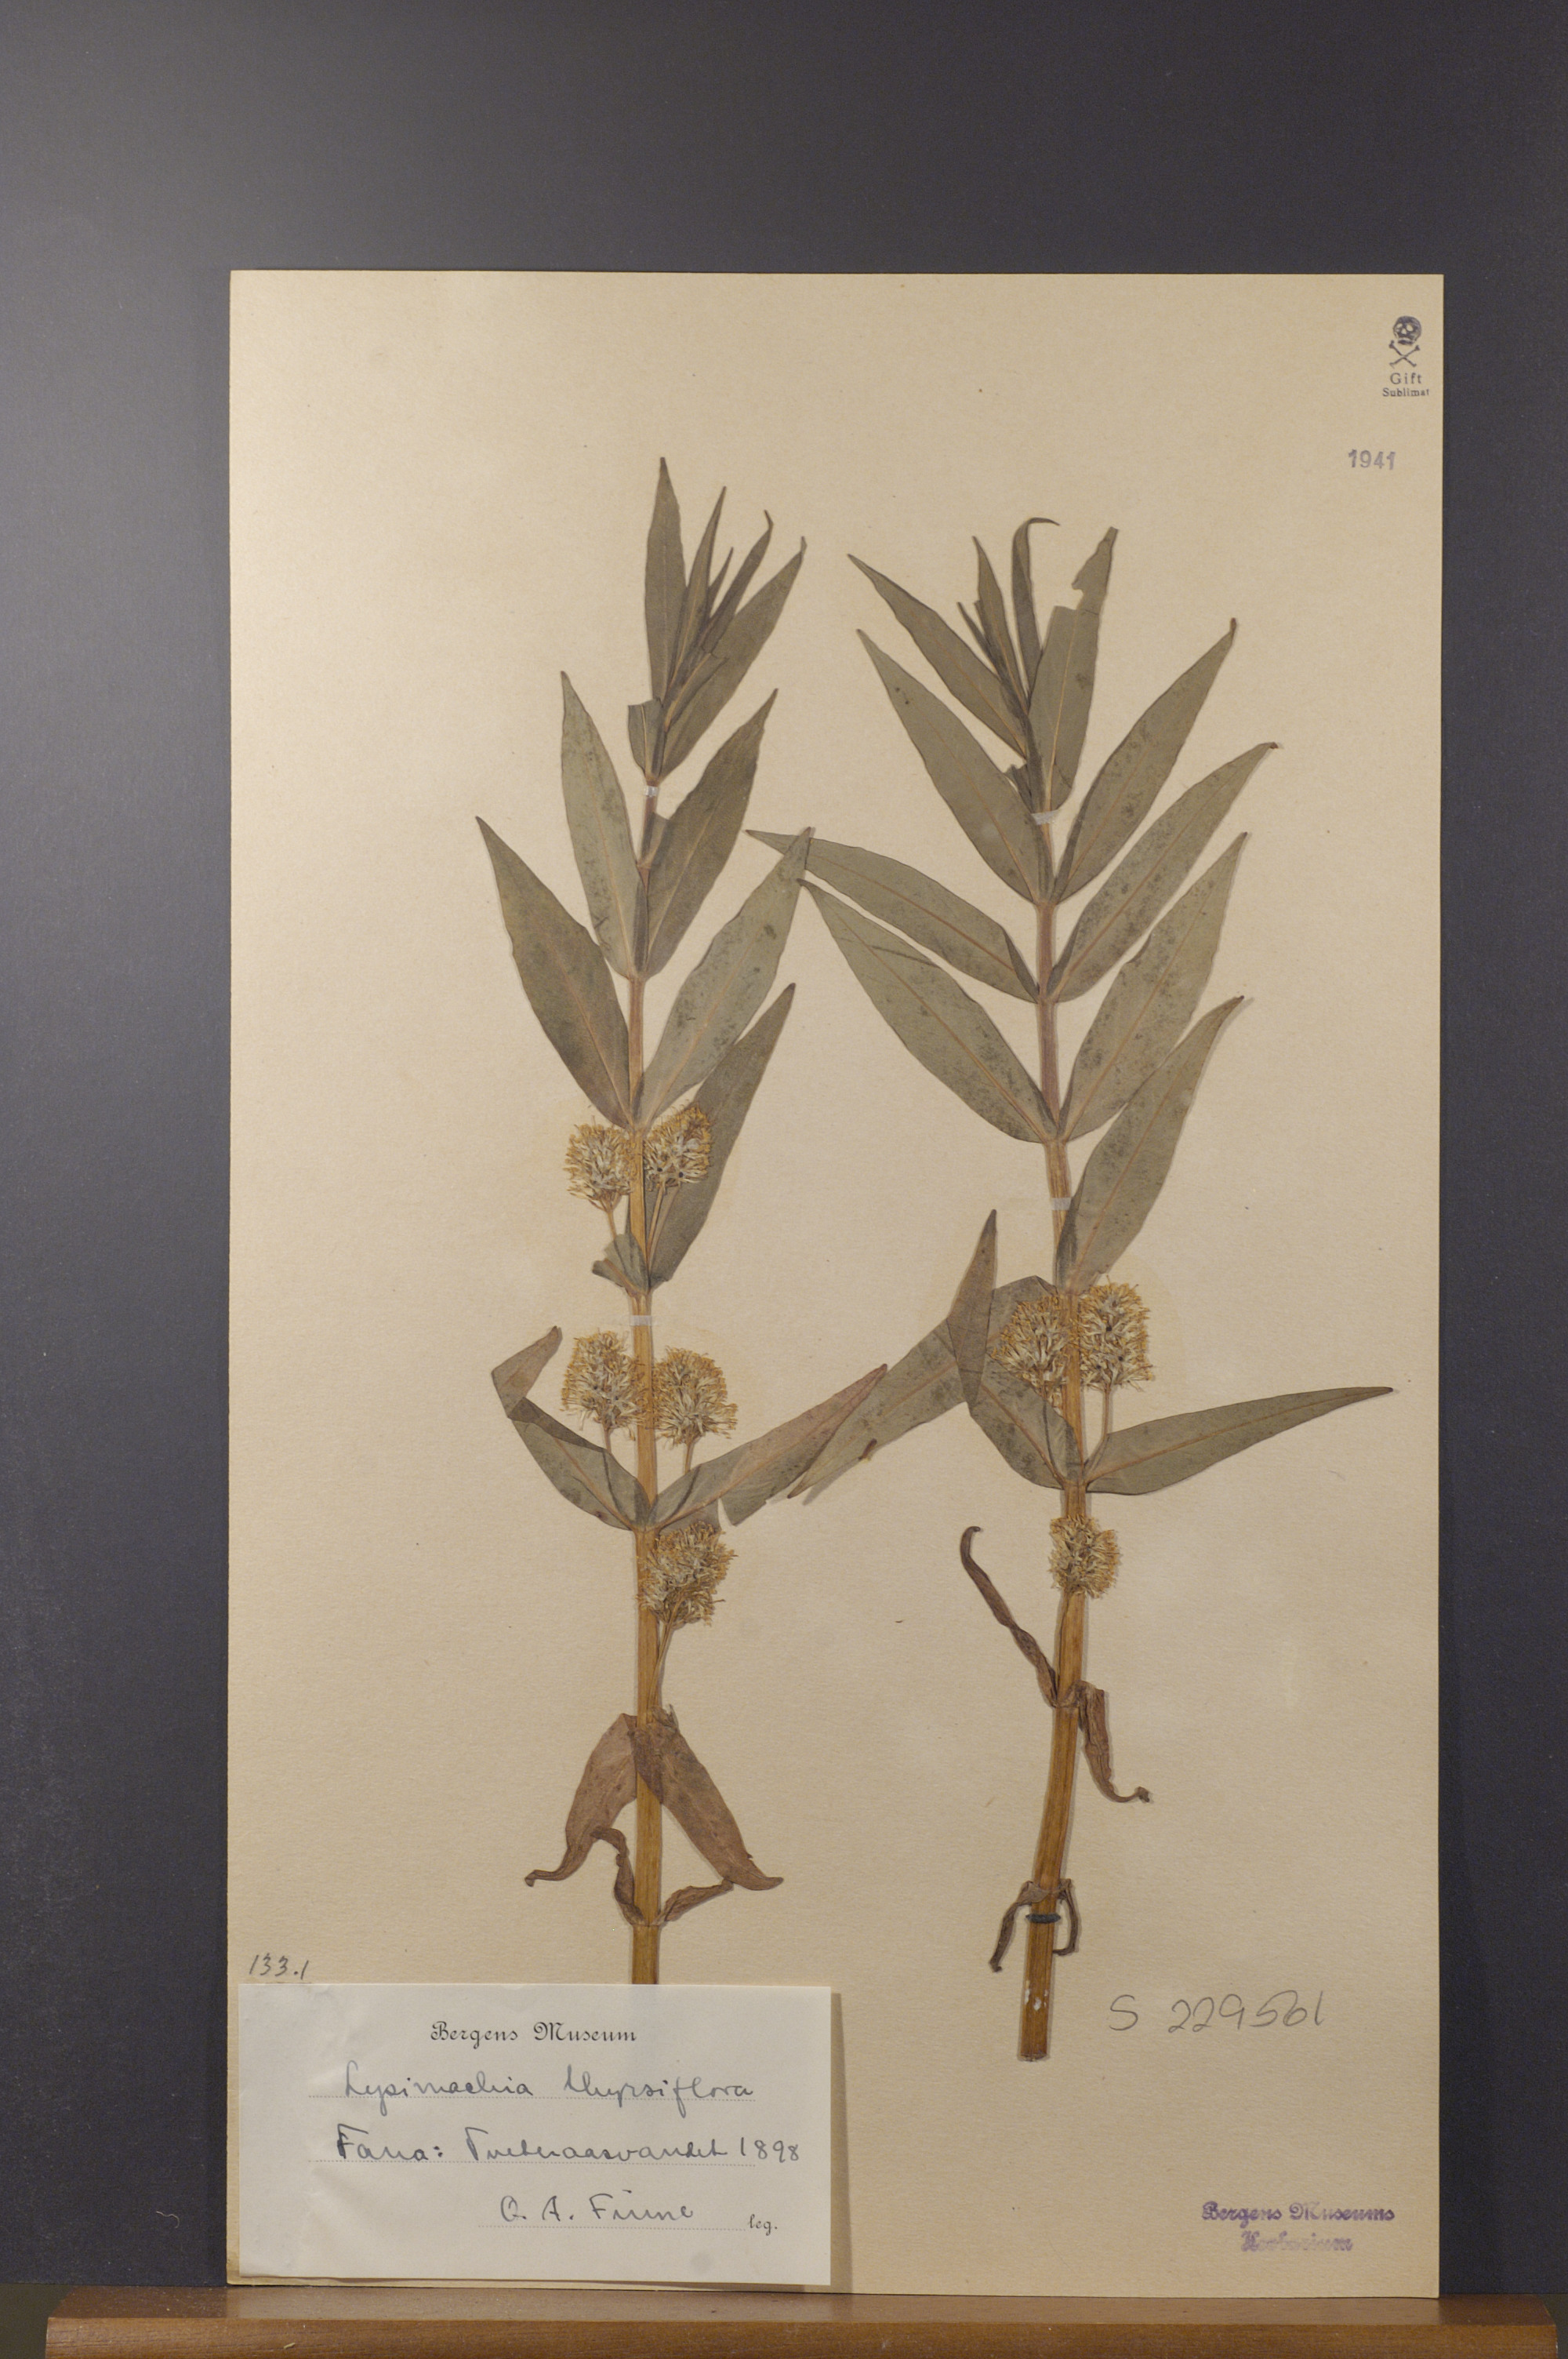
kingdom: Plantae
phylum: Tracheophyta
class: Magnoliopsida
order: Ericales
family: Primulaceae
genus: Lysimachia
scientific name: Lysimachia thyrsiflora
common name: Tufted loosestrife
